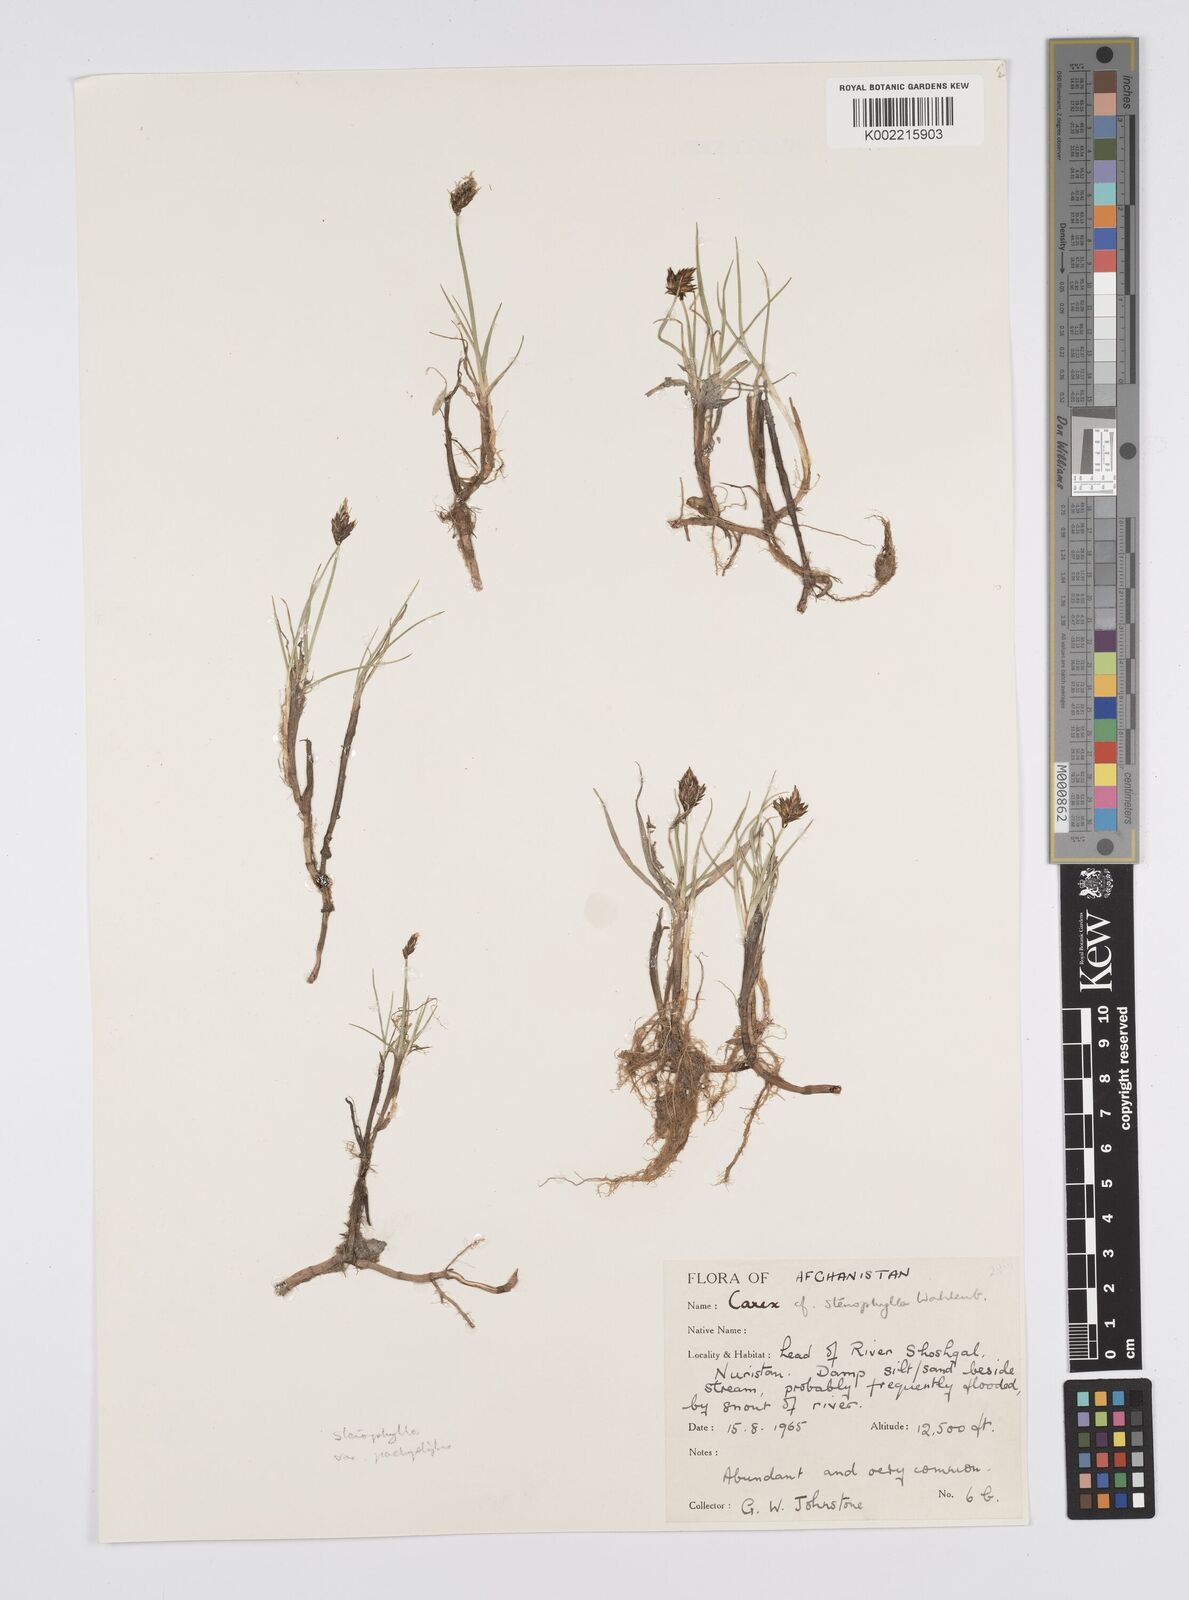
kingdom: Plantae
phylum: Tracheophyta
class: Liliopsida
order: Poales
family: Cyperaceae
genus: Carex
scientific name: Carex stenophylla
